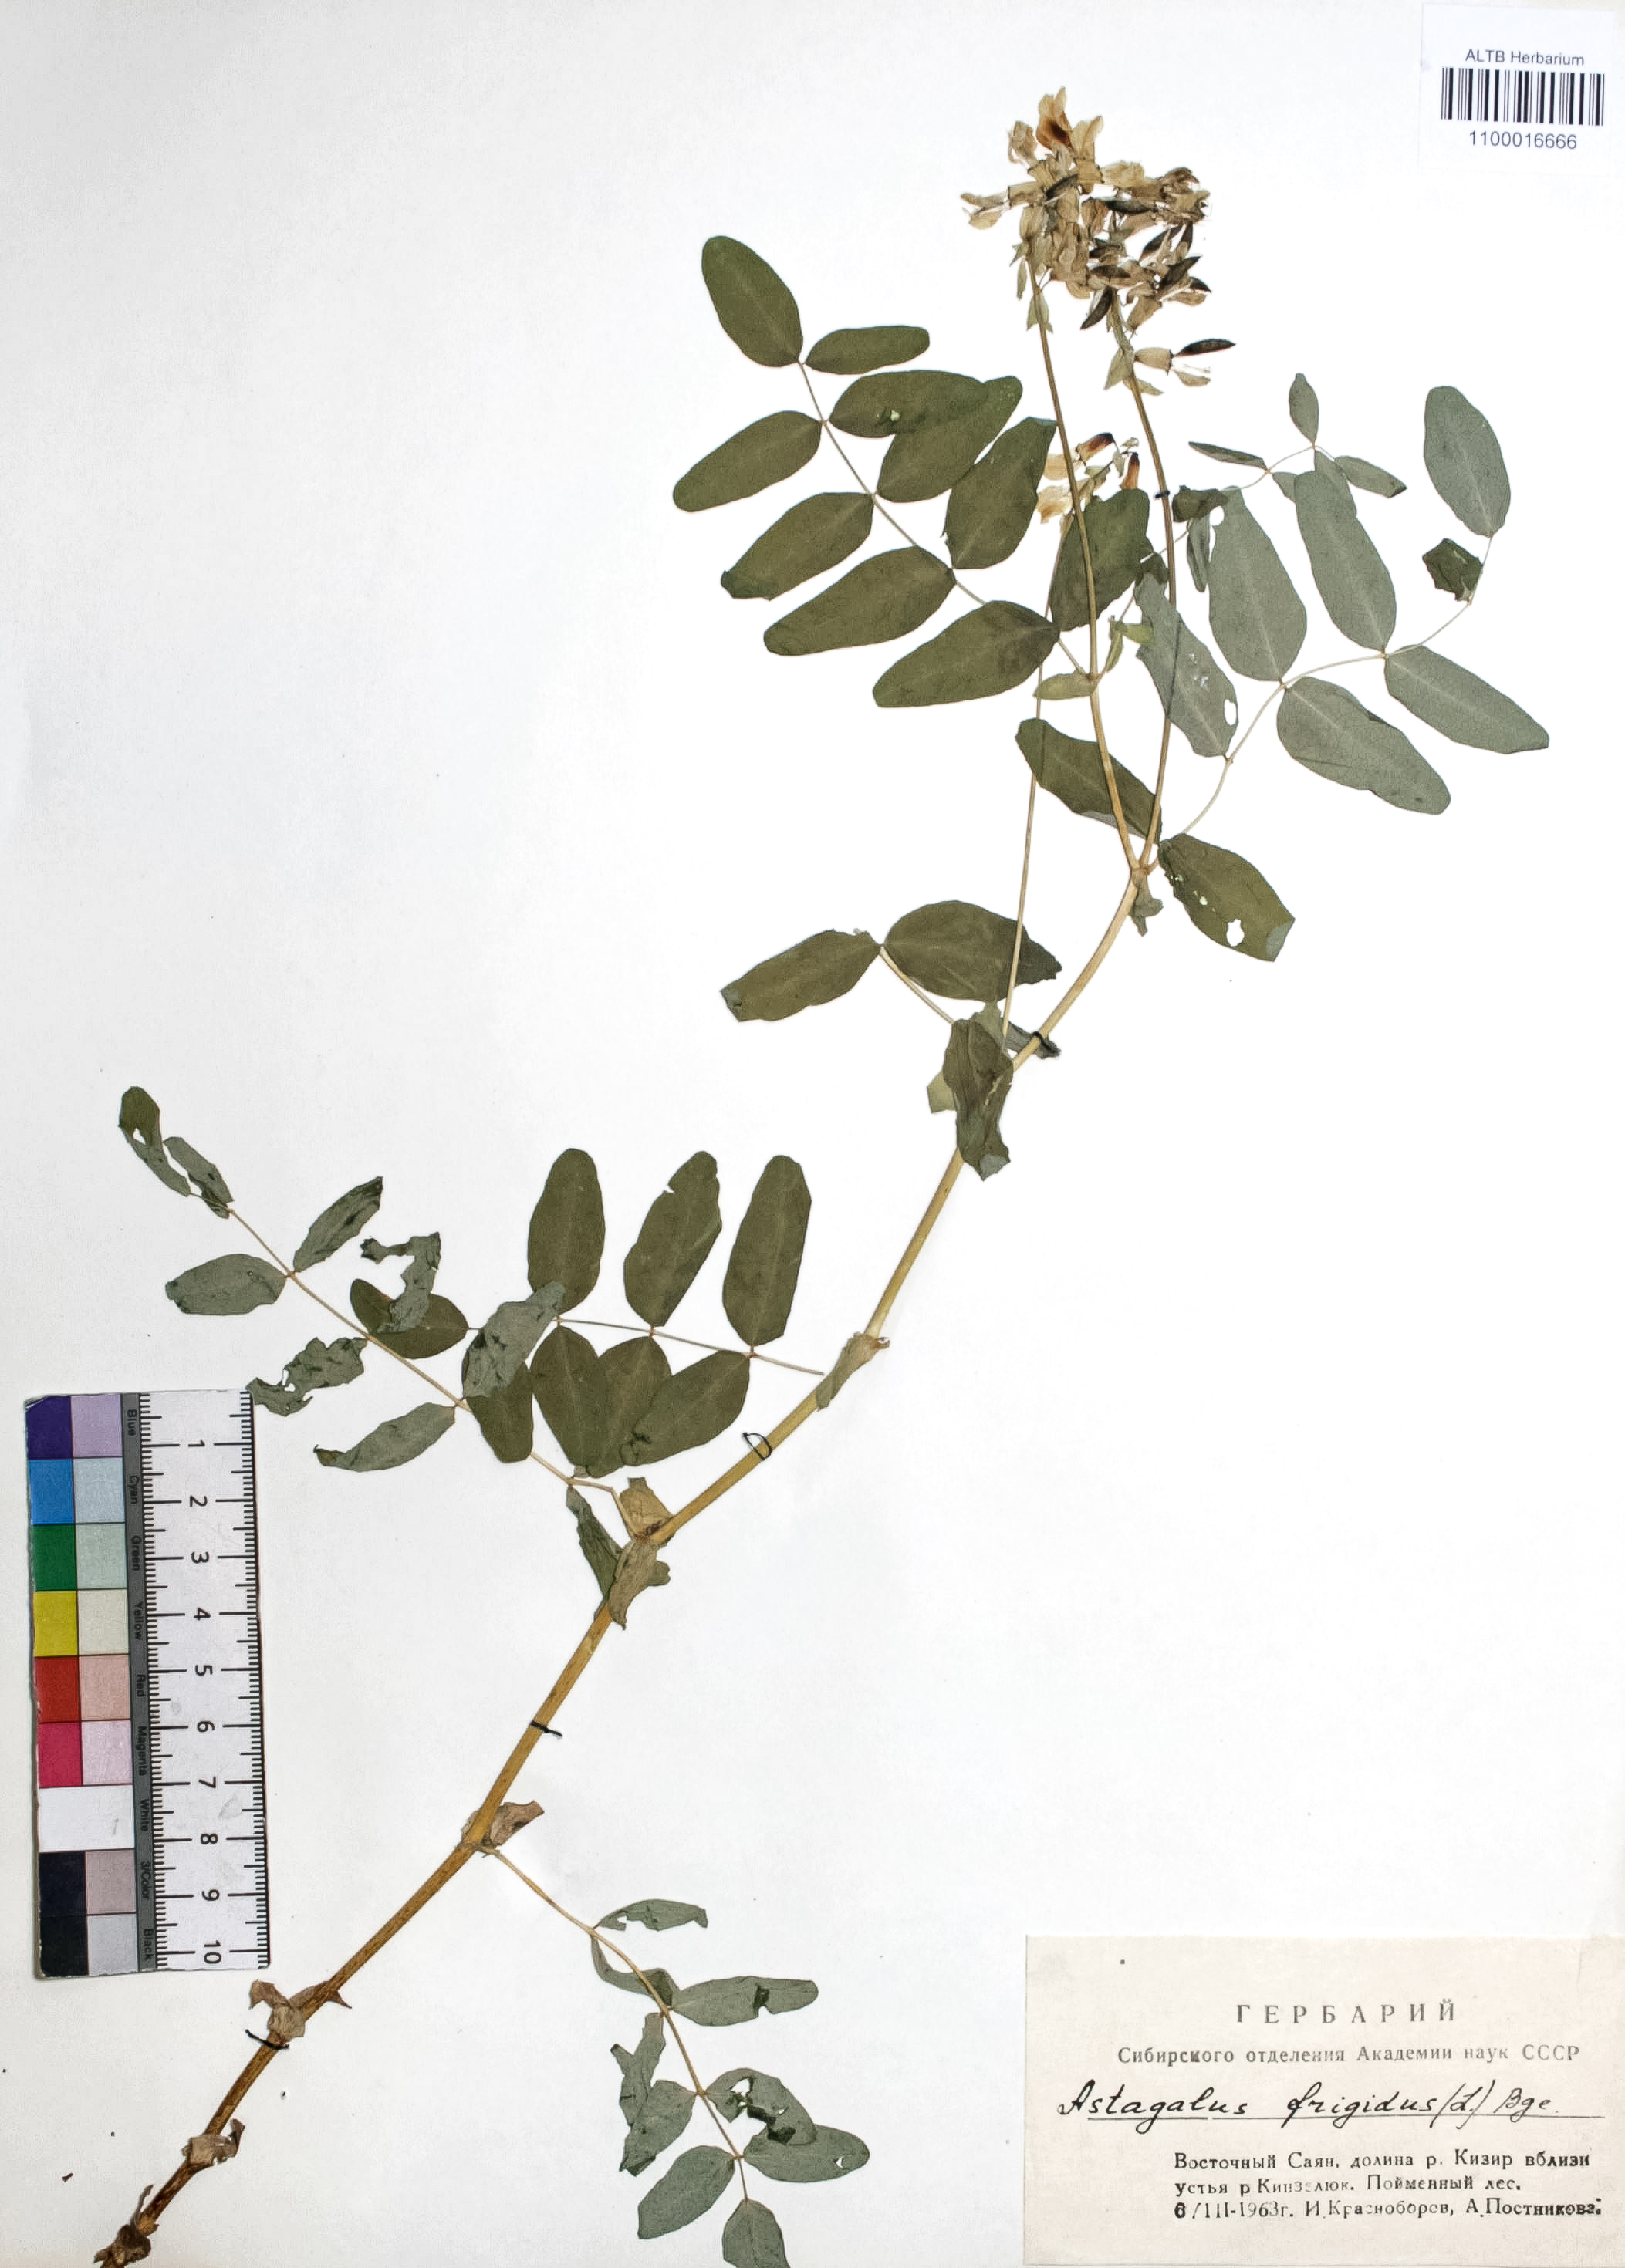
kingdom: Plantae
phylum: Tracheophyta
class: Magnoliopsida
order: Fabales
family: Fabaceae
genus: Astragalus
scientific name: Astragalus frigidus
